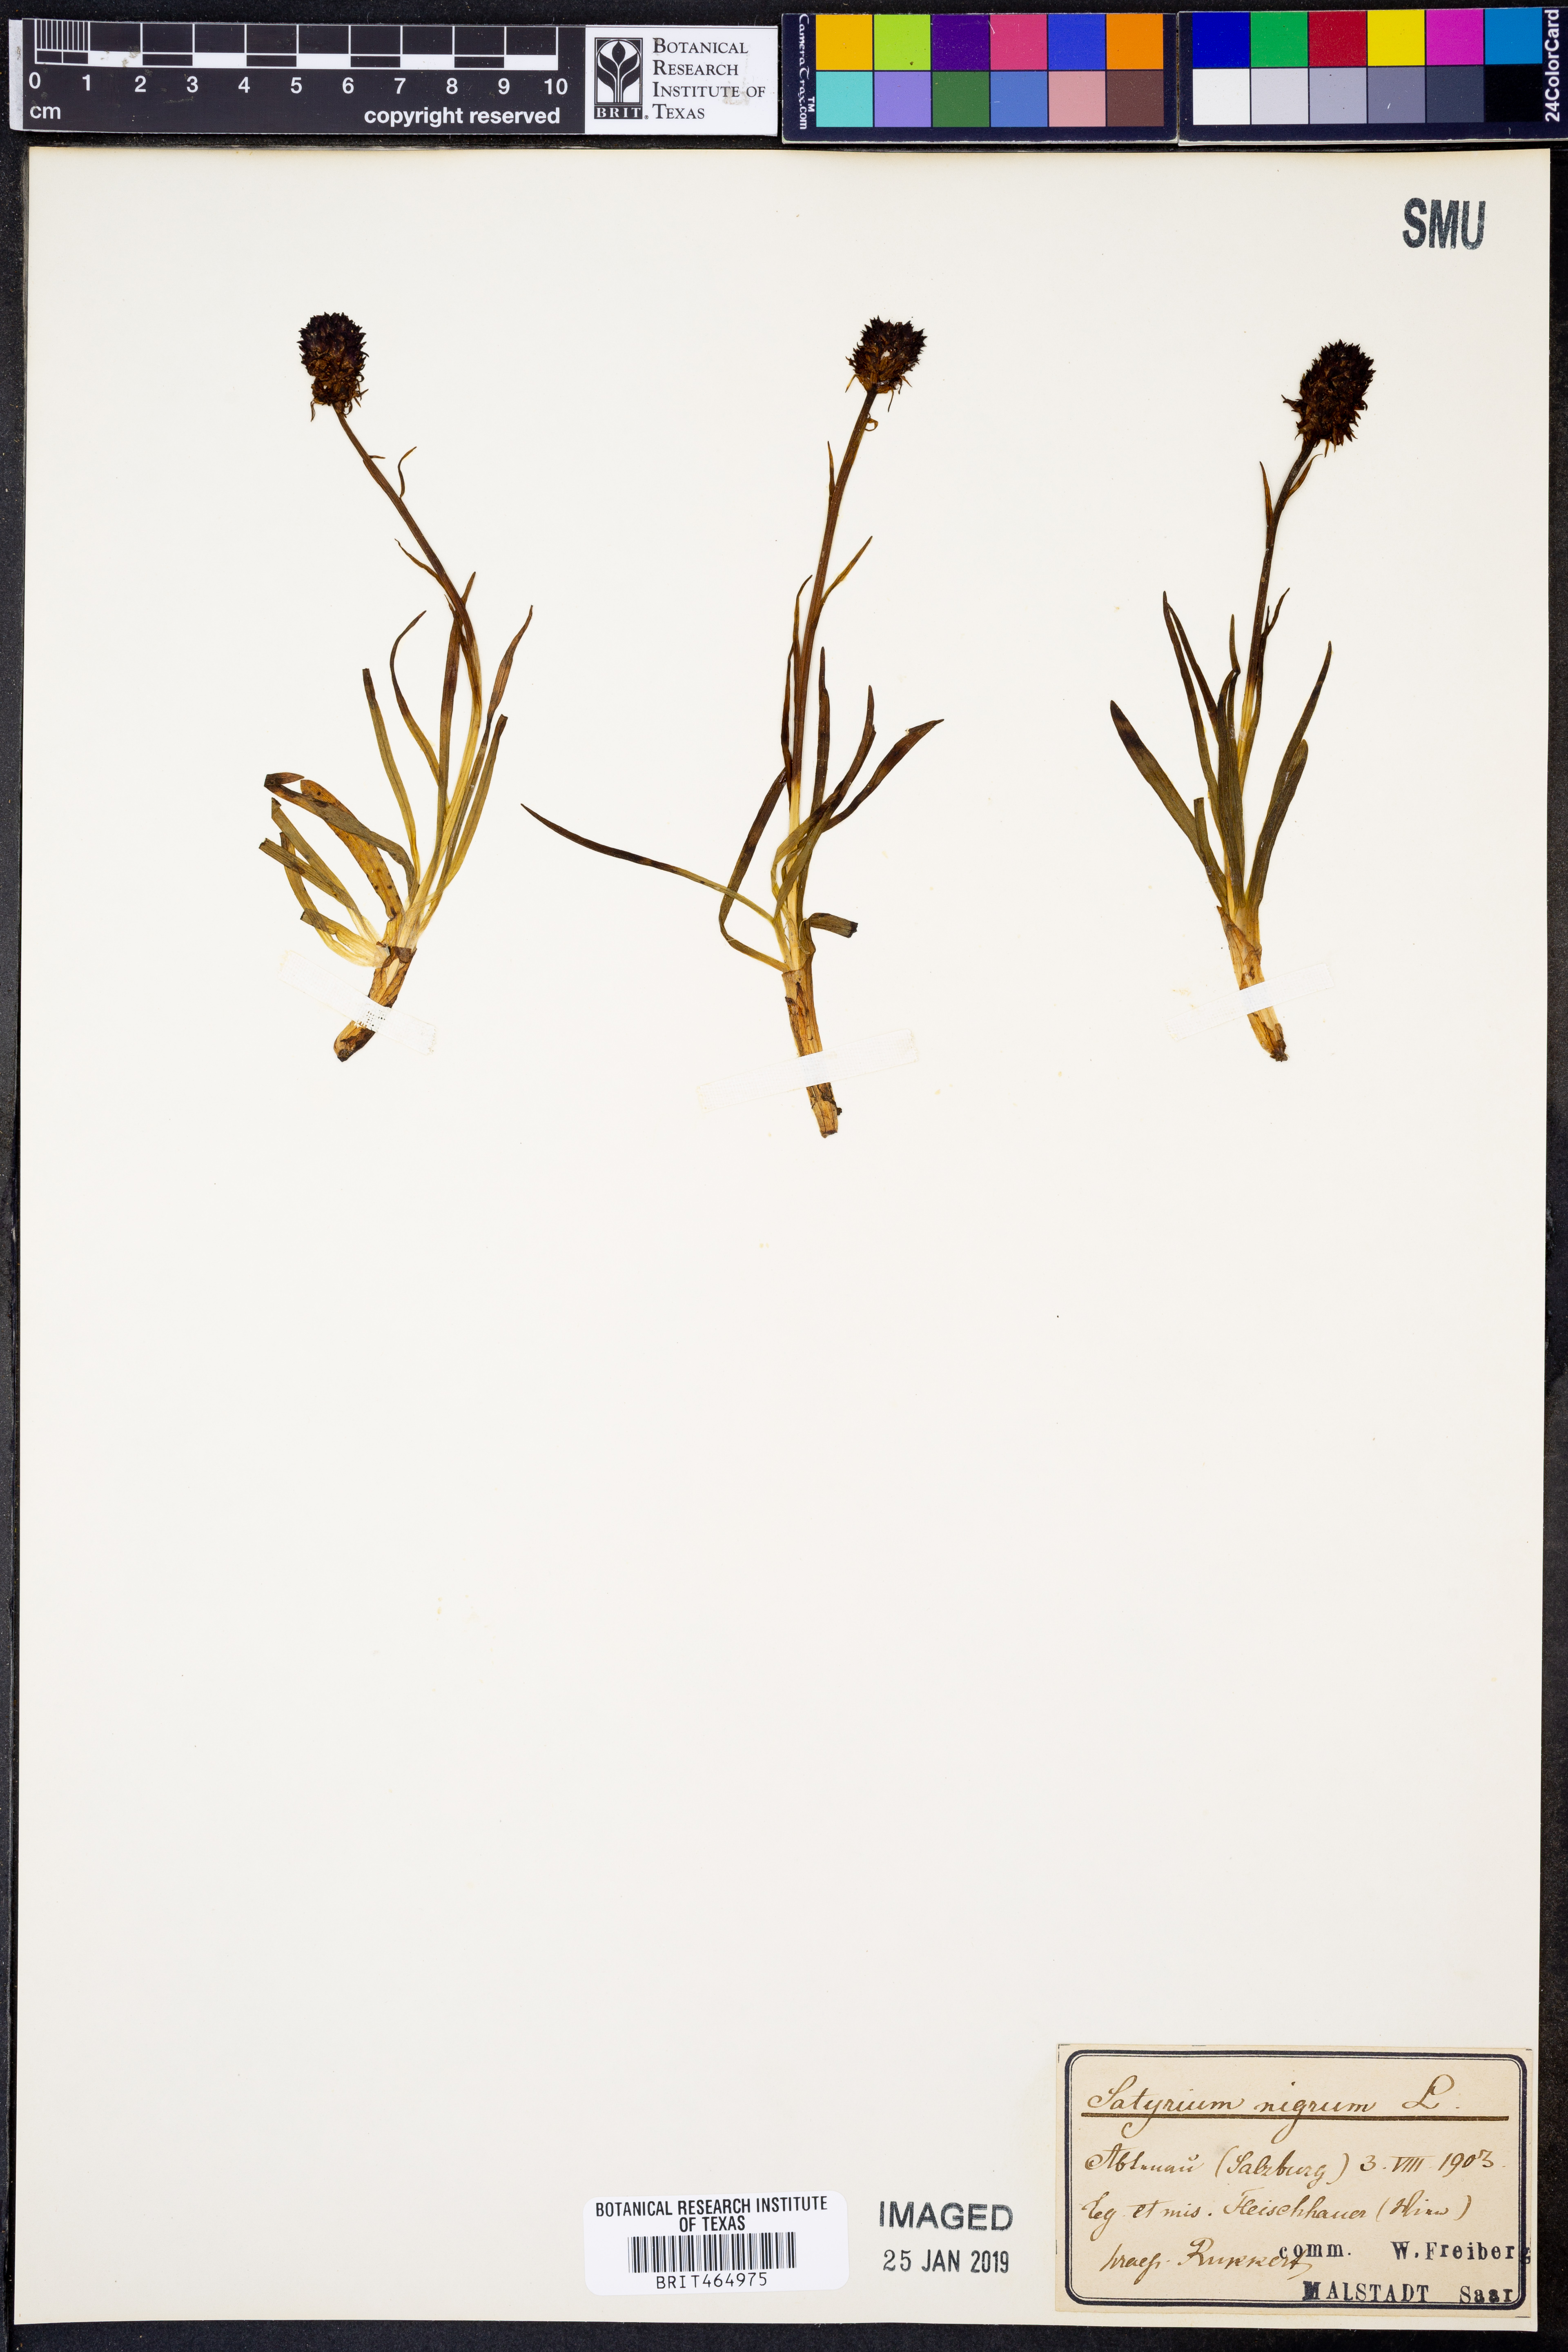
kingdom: Plantae
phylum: Tracheophyta
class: Liliopsida
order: Asparagales
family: Orchidaceae
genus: Gymnadenia
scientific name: Gymnadenia nigra
